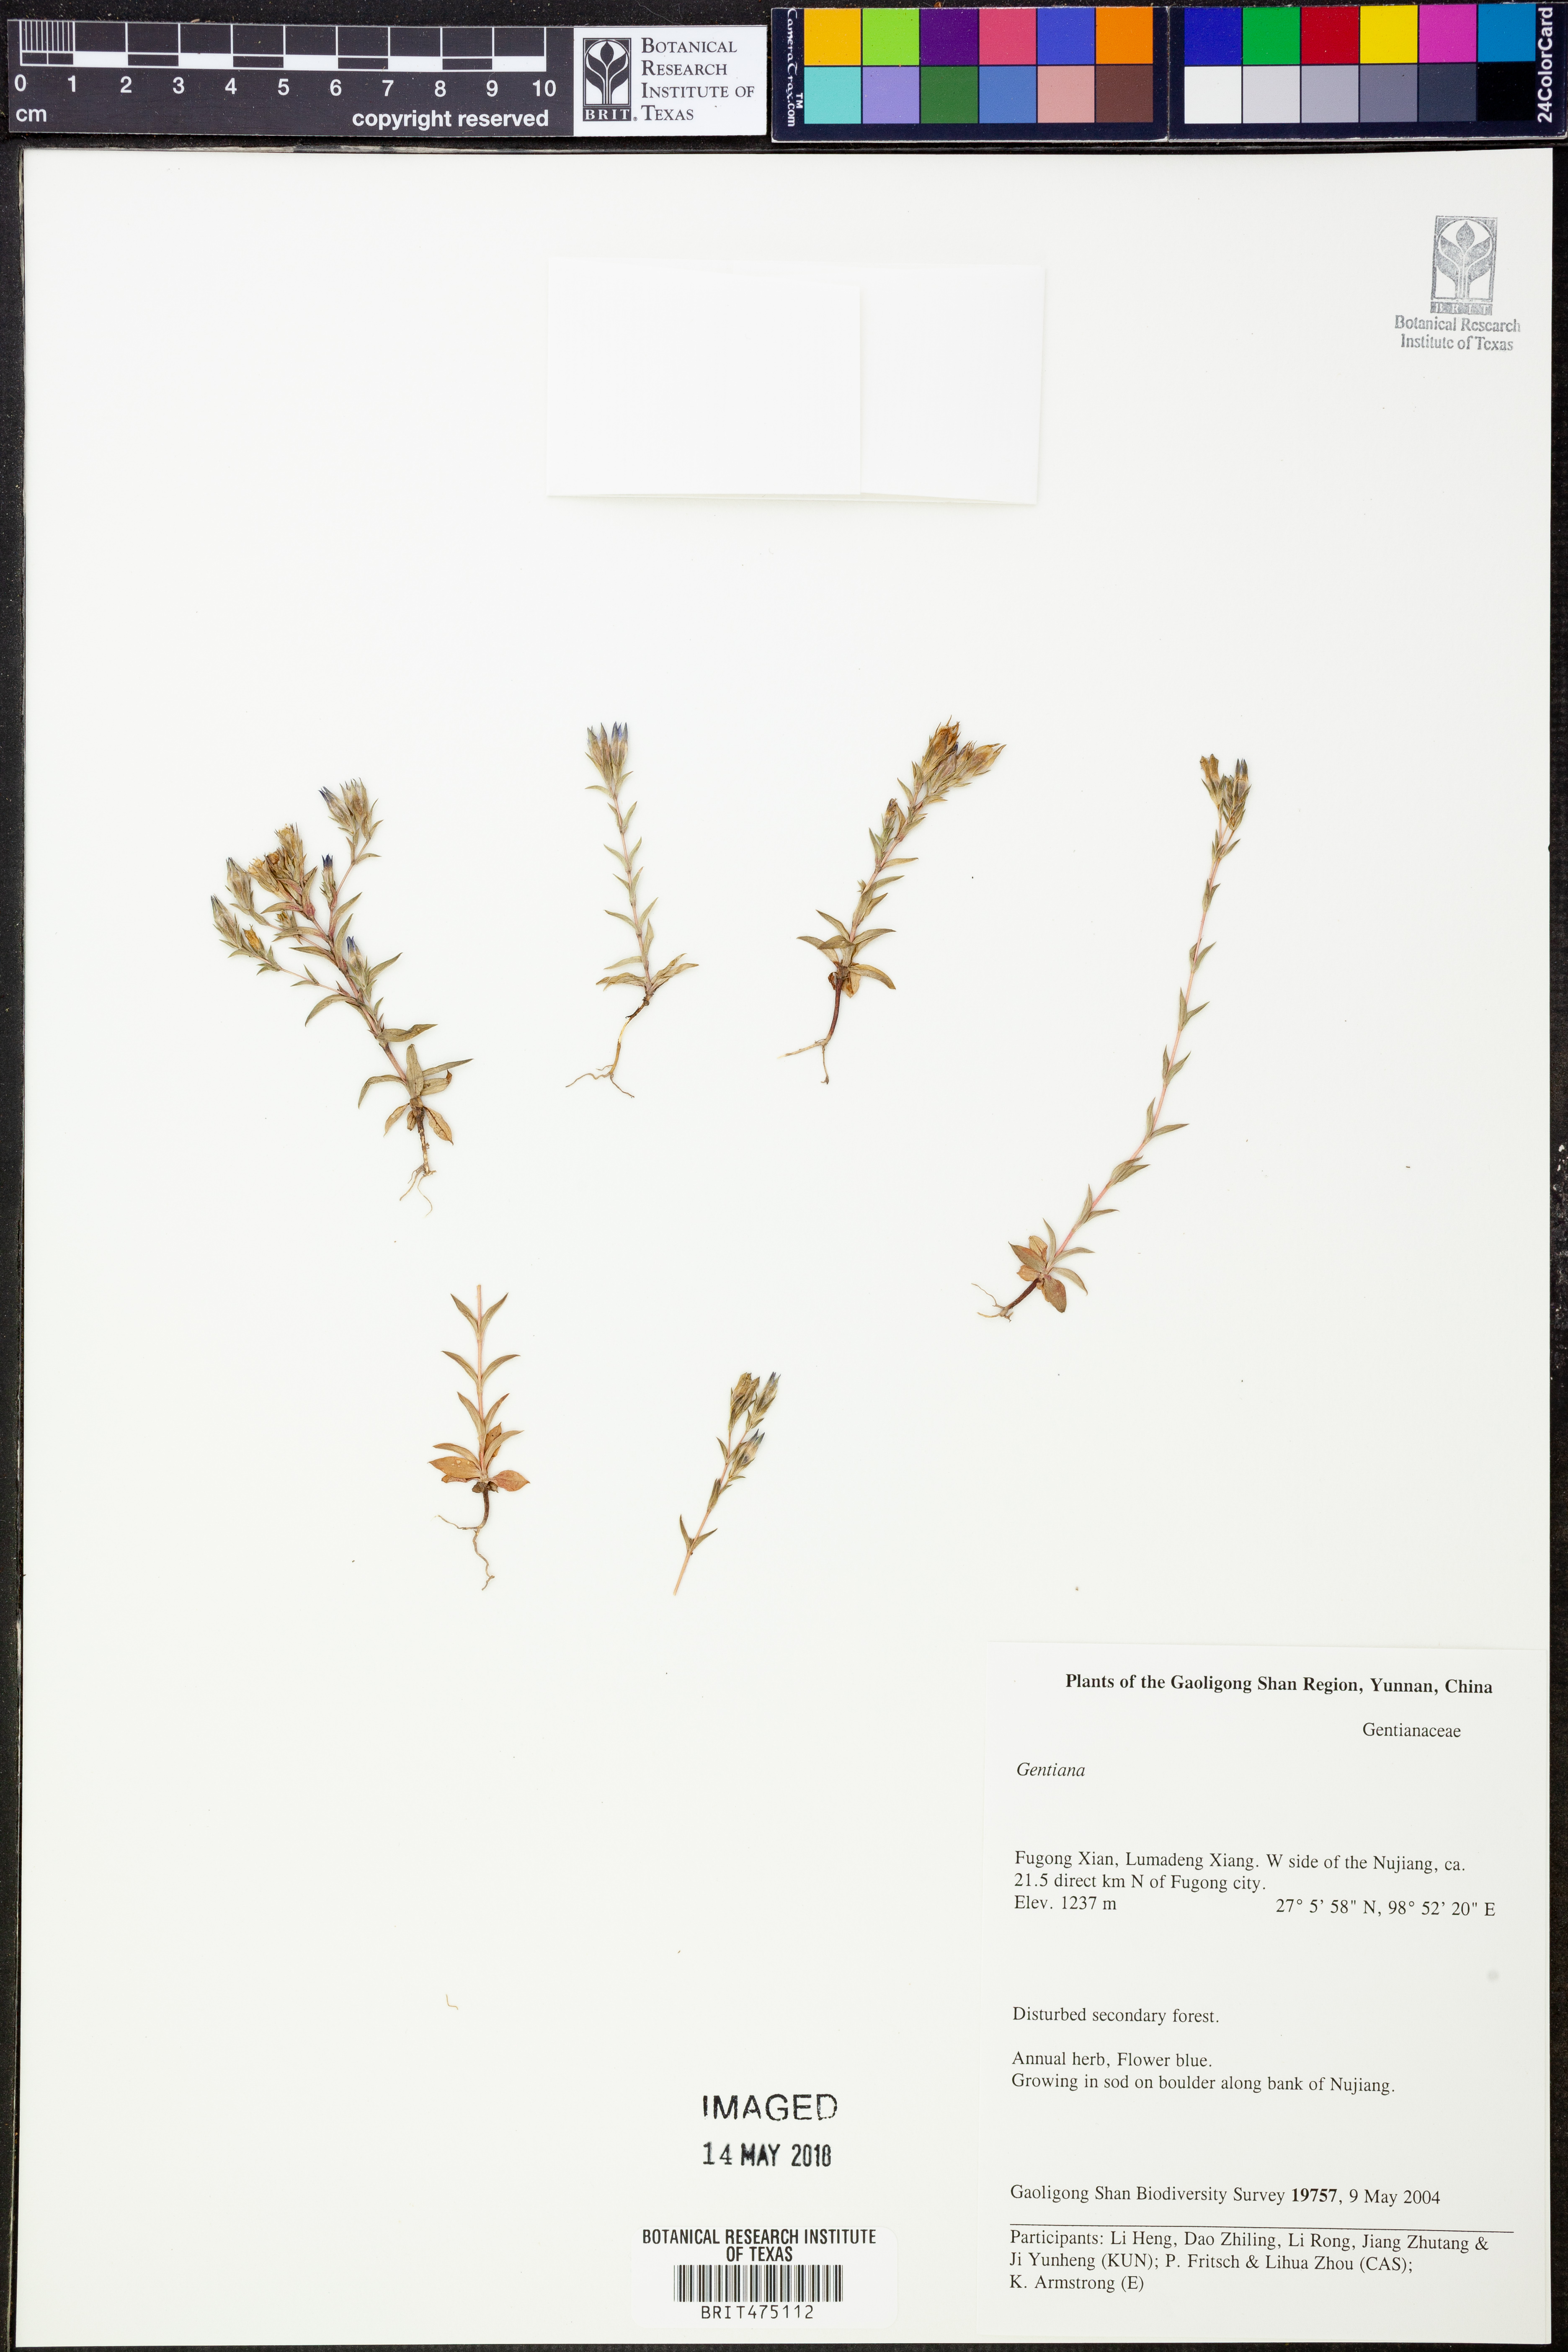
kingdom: Plantae
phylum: Tracheophyta
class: Magnoliopsida
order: Gentianales
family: Gentianaceae
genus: Gentiana
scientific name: Gentiana
